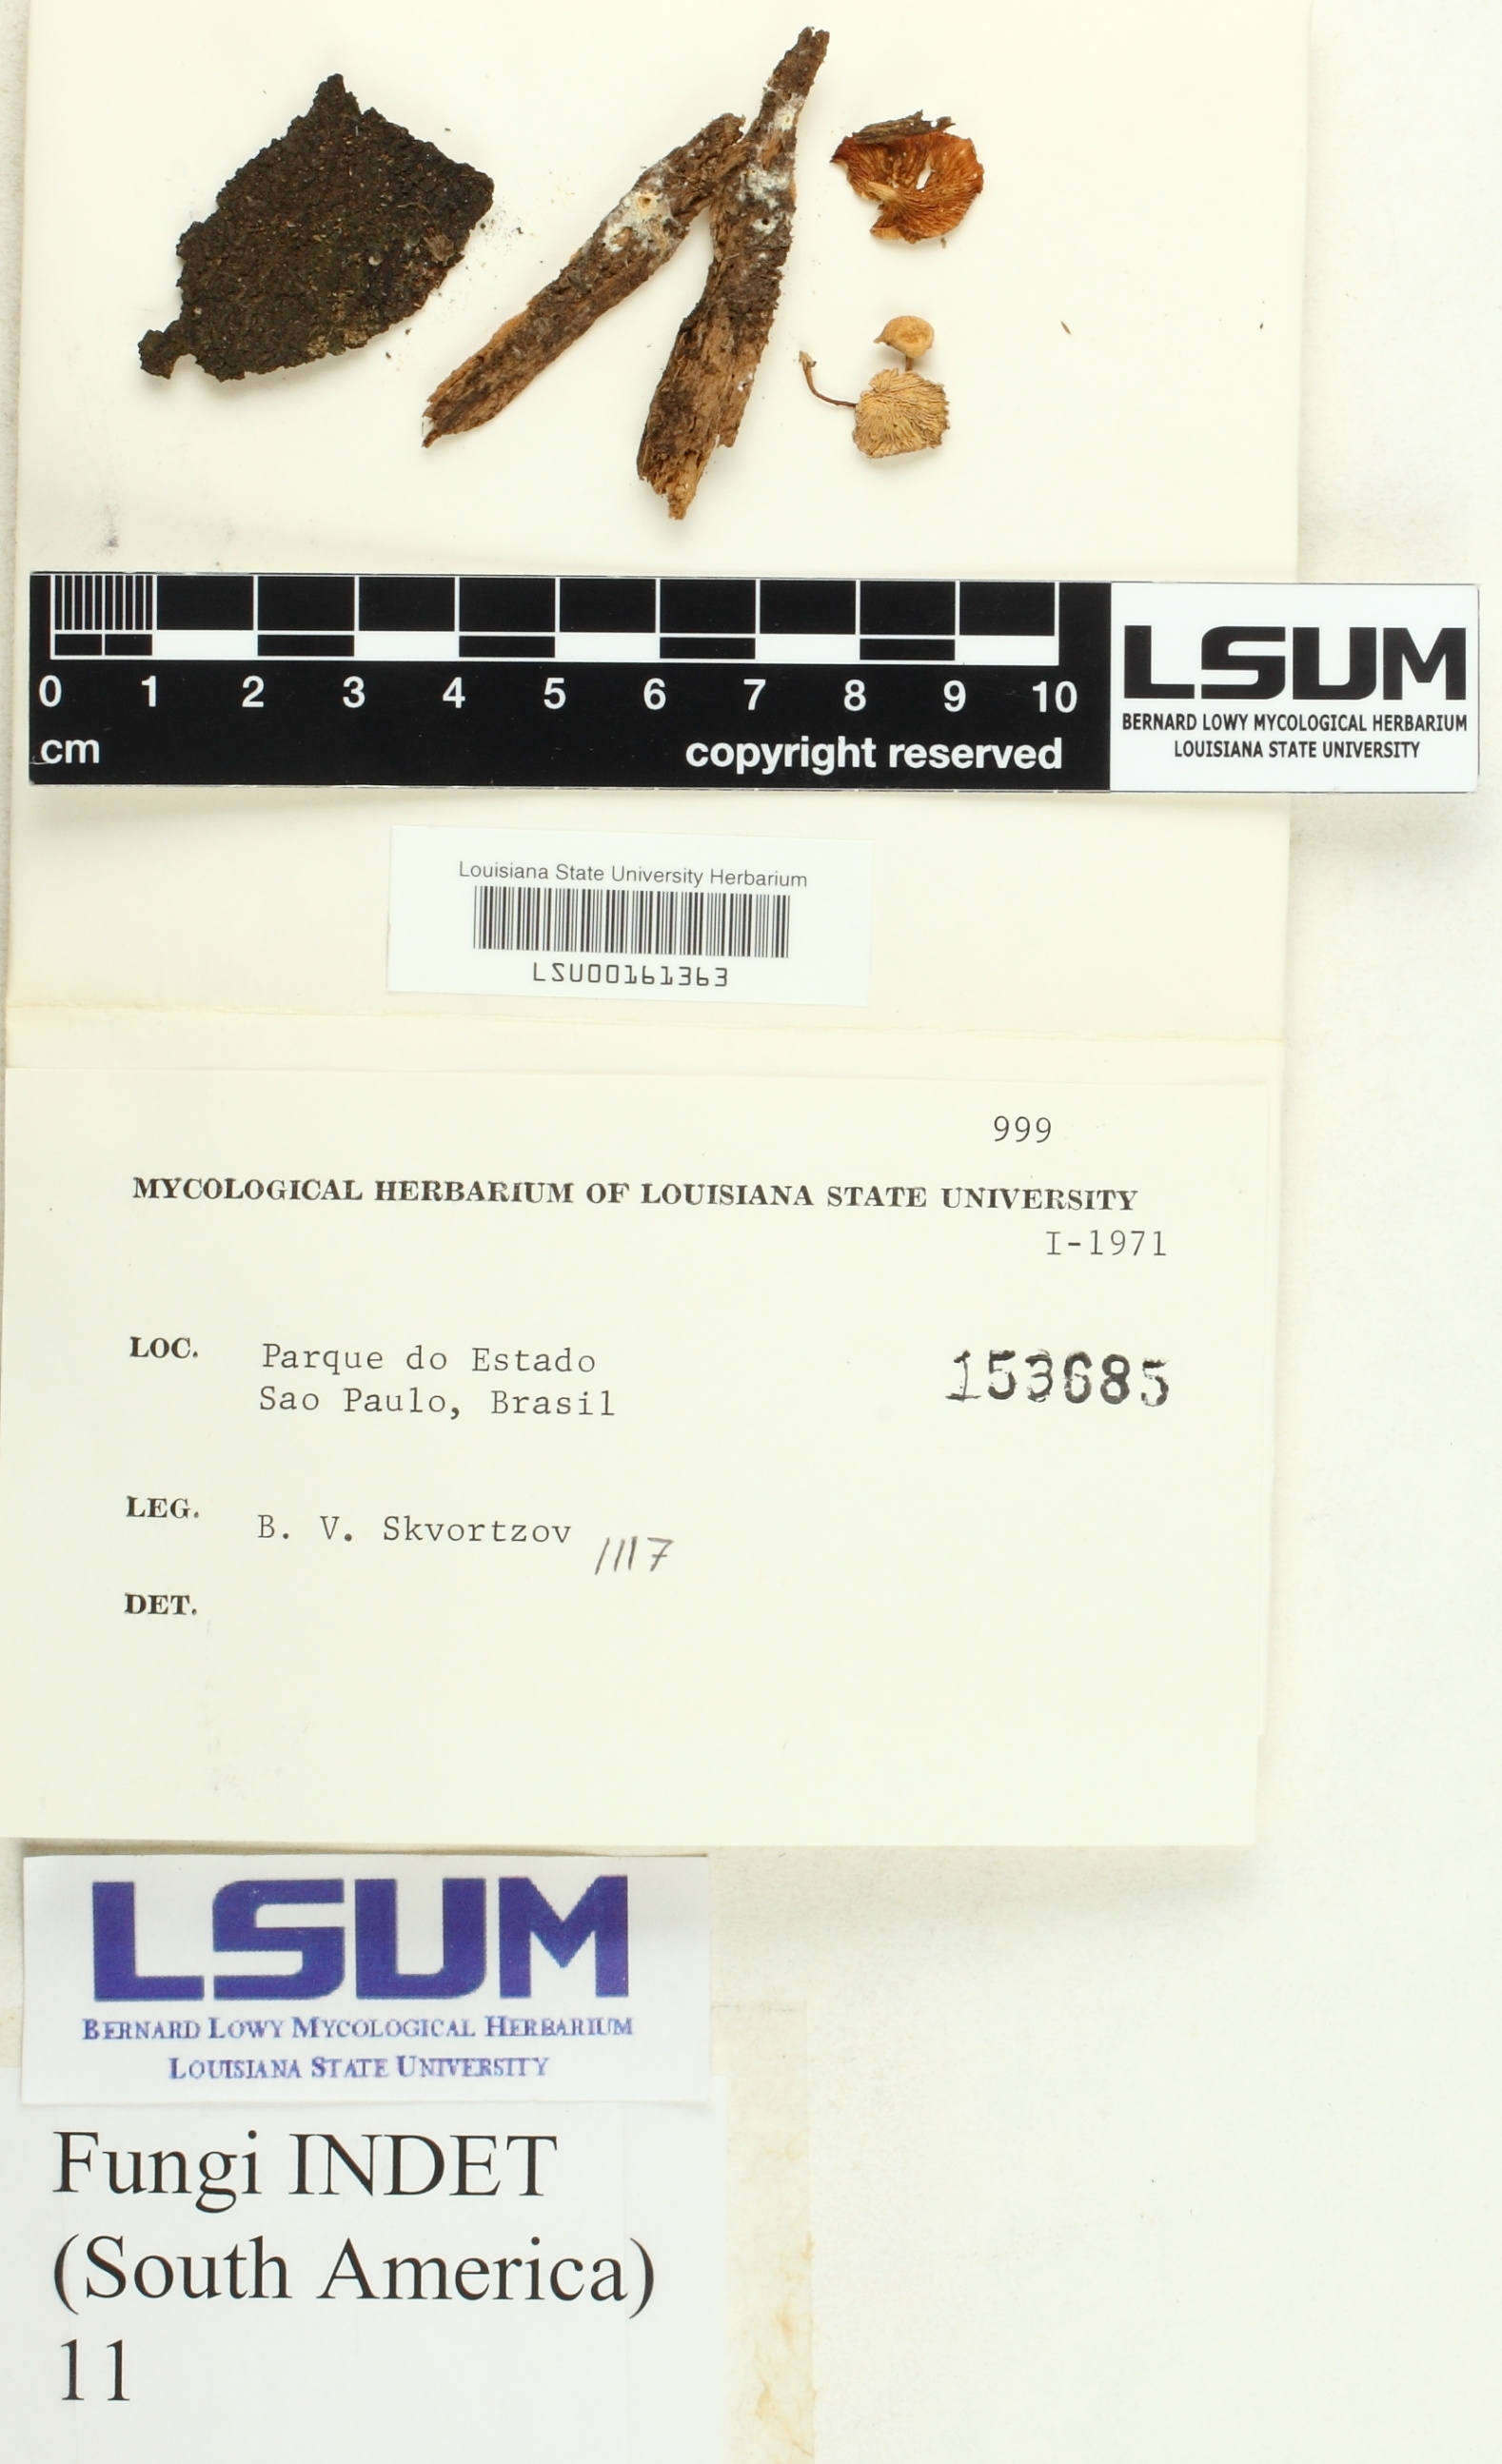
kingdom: Fungi
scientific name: Fungi
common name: Fungi
